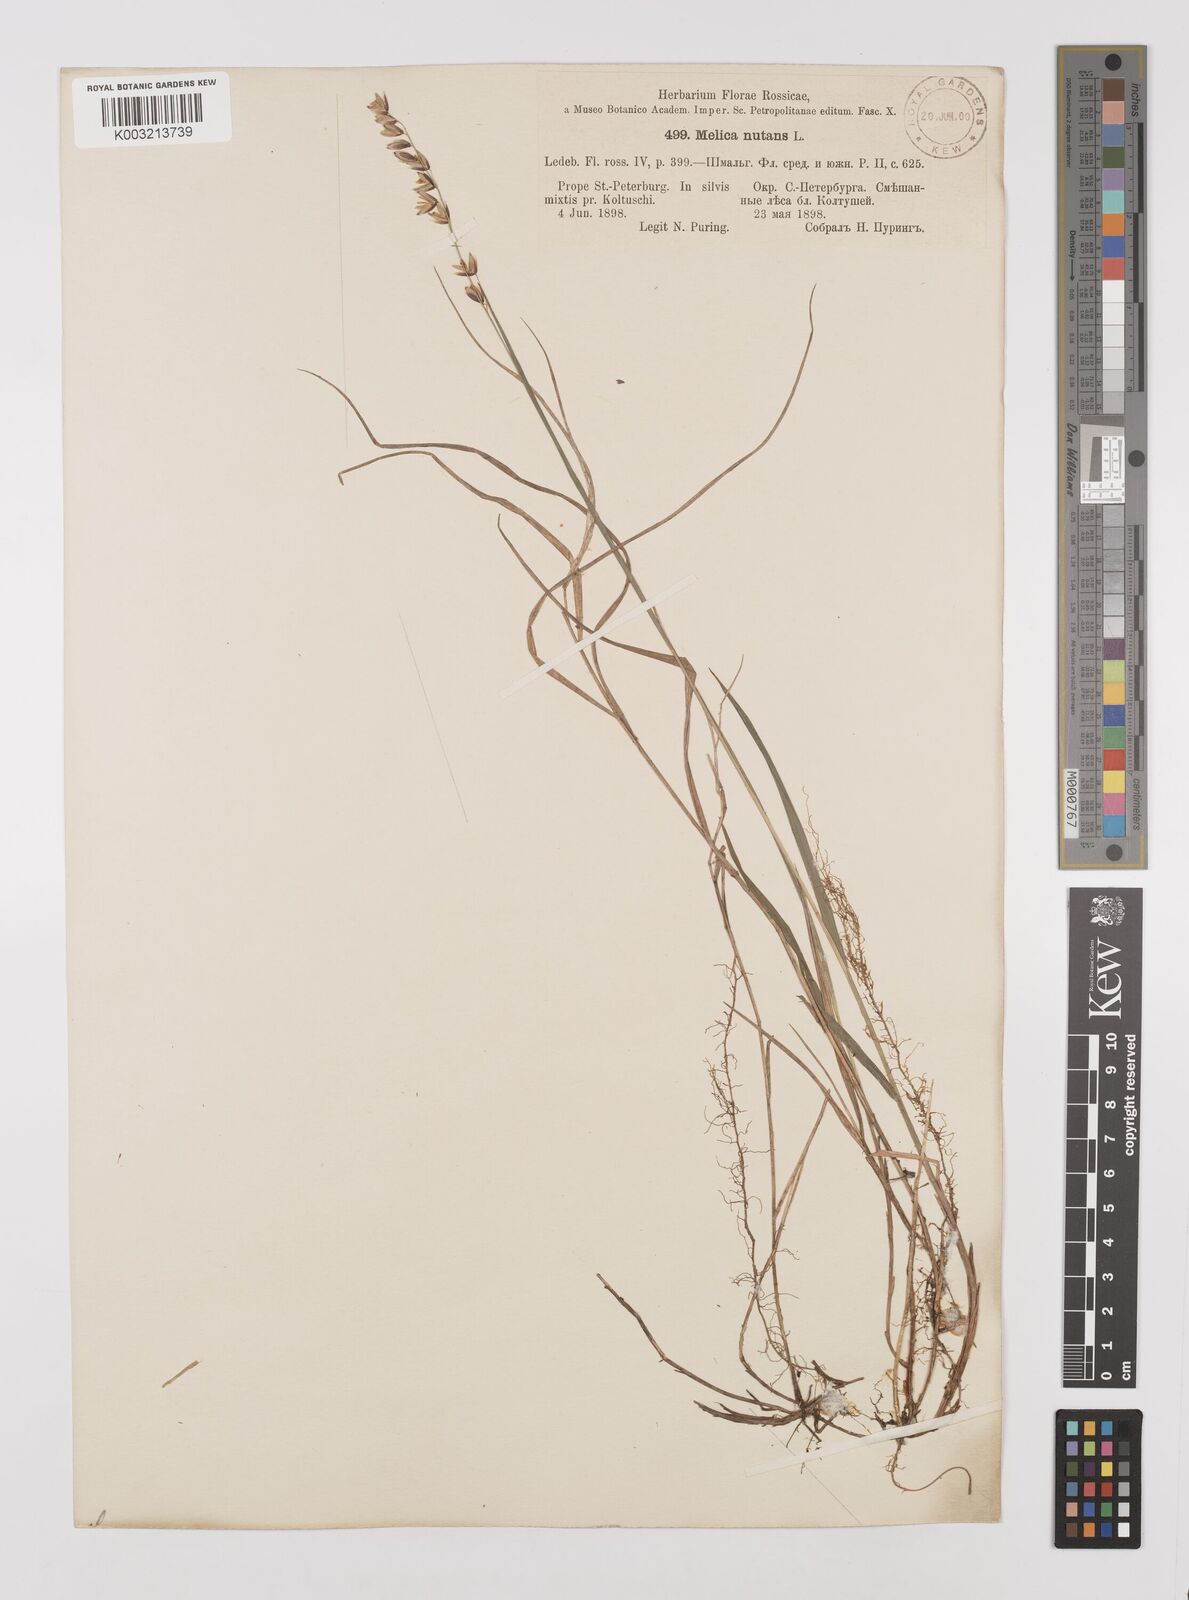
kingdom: Plantae
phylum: Tracheophyta
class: Liliopsida
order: Poales
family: Poaceae
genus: Melica
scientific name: Melica
